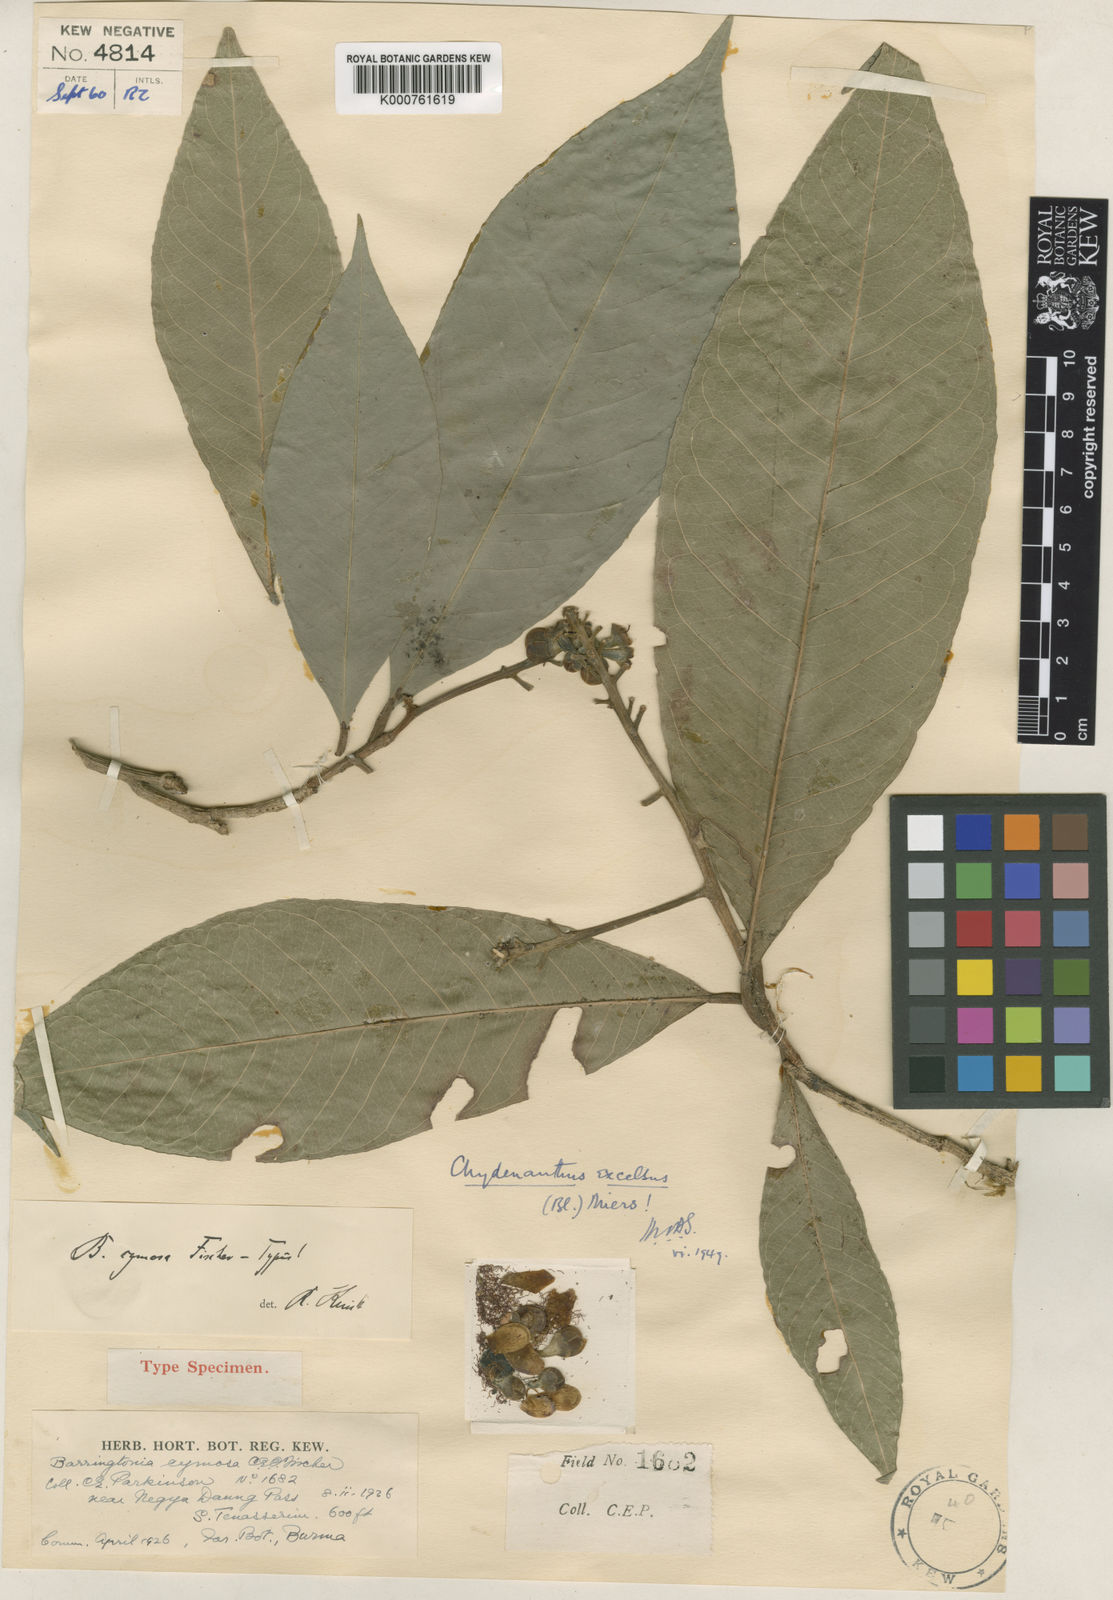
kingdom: Plantae
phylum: Tracheophyta
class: Magnoliopsida
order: Ericales
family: Lecythidaceae
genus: Chydenanthus
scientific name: Chydenanthus excelsus
